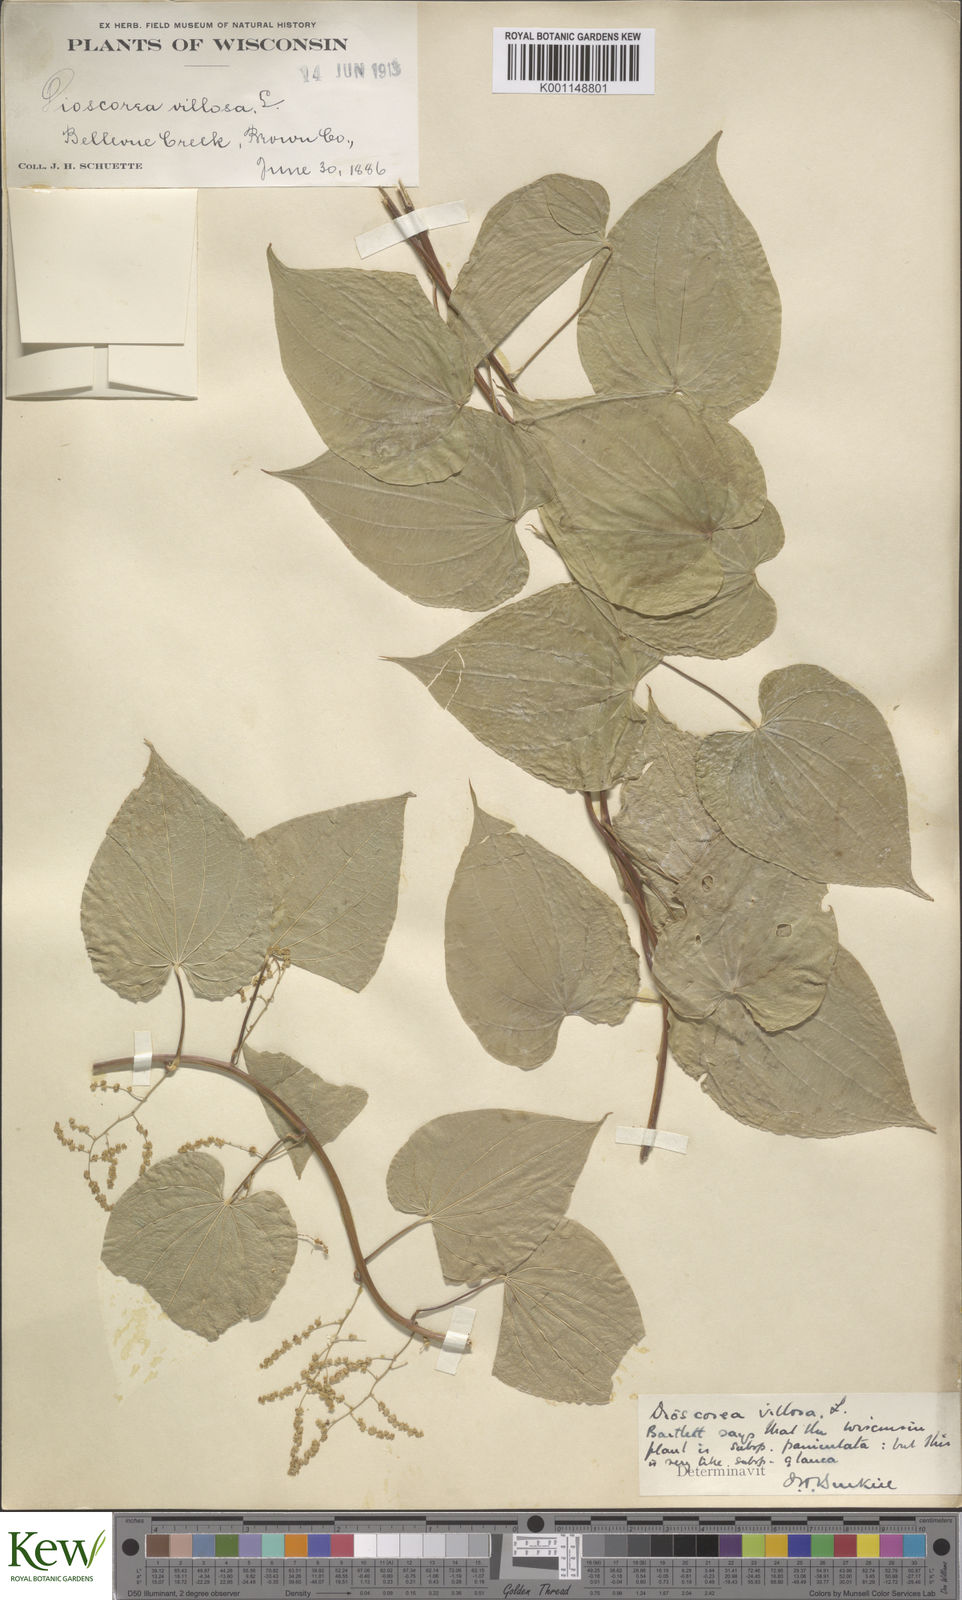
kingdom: Plantae
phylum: Tracheophyta
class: Liliopsida
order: Dioscoreales
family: Dioscoreaceae
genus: Dioscorea
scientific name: Dioscorea villosa
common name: Wild yam
